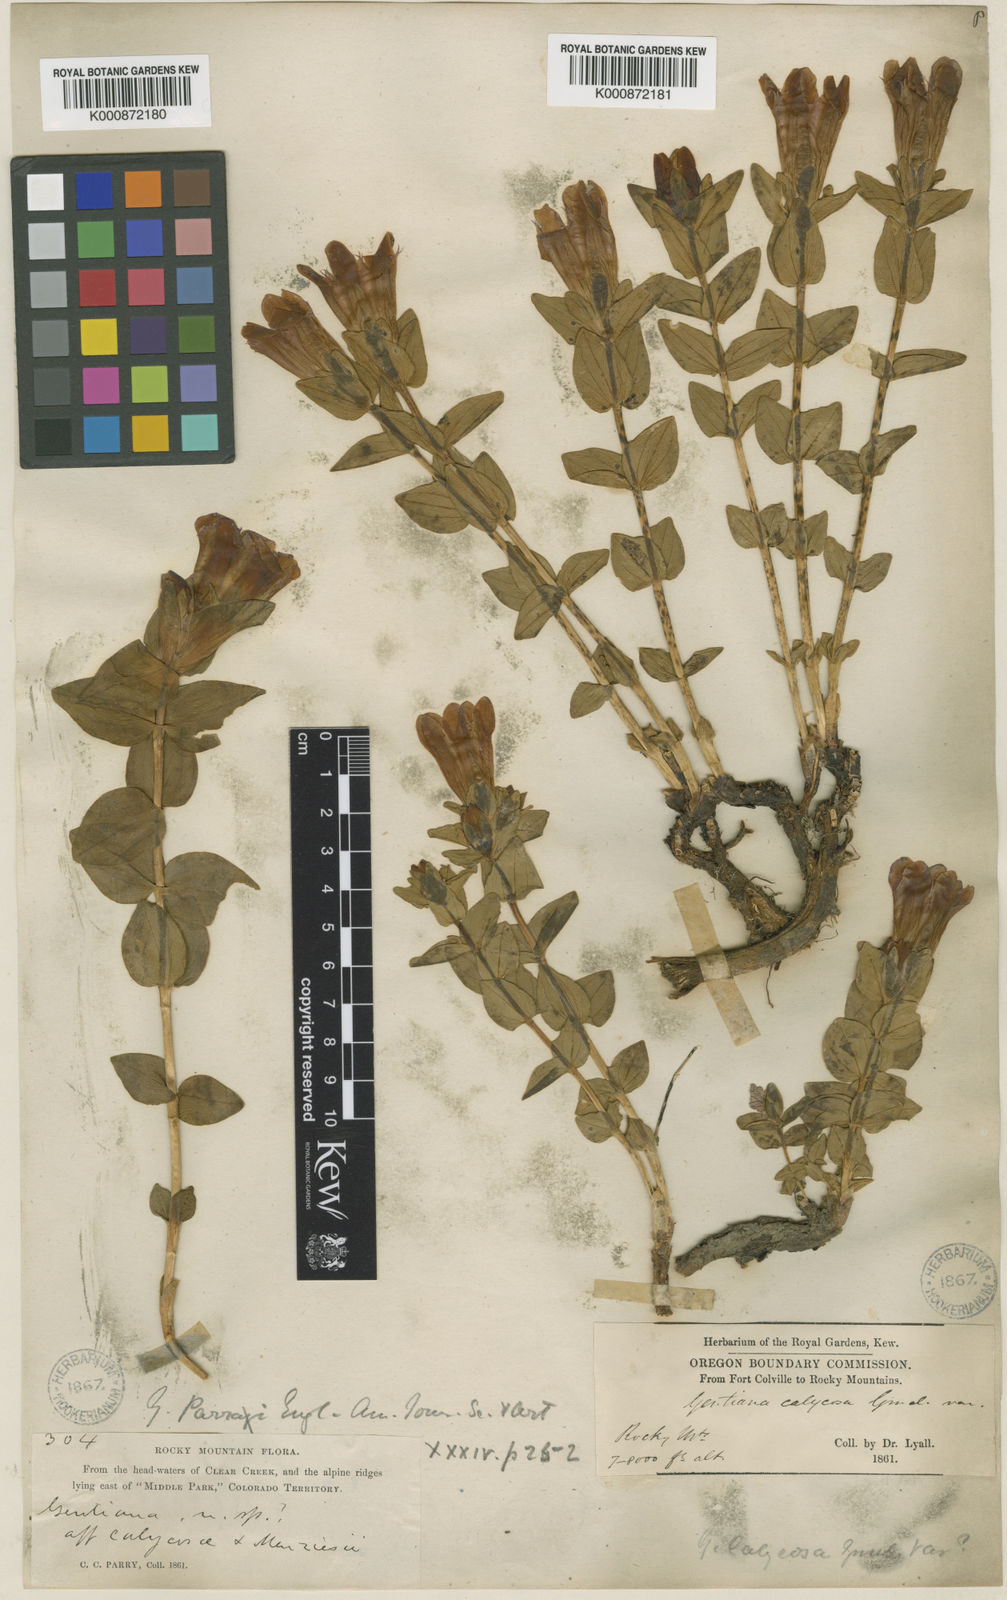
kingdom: Plantae
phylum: Tracheophyta
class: Magnoliopsida
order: Gentianales
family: Gentianaceae
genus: Gentiana
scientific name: Gentiana parryi
